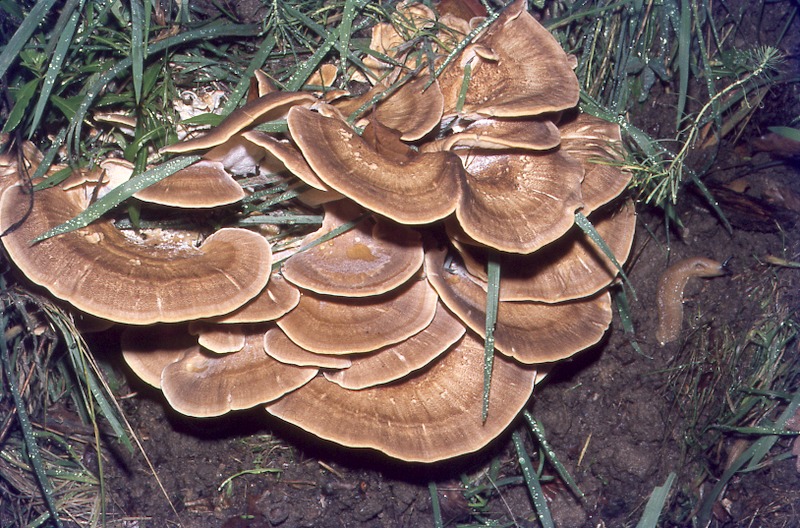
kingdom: Plantae
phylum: Tracheophyta
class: Magnoliopsida
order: Fagales
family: Fagaceae
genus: Fagus
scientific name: Fagus sylvatica
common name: Beech
